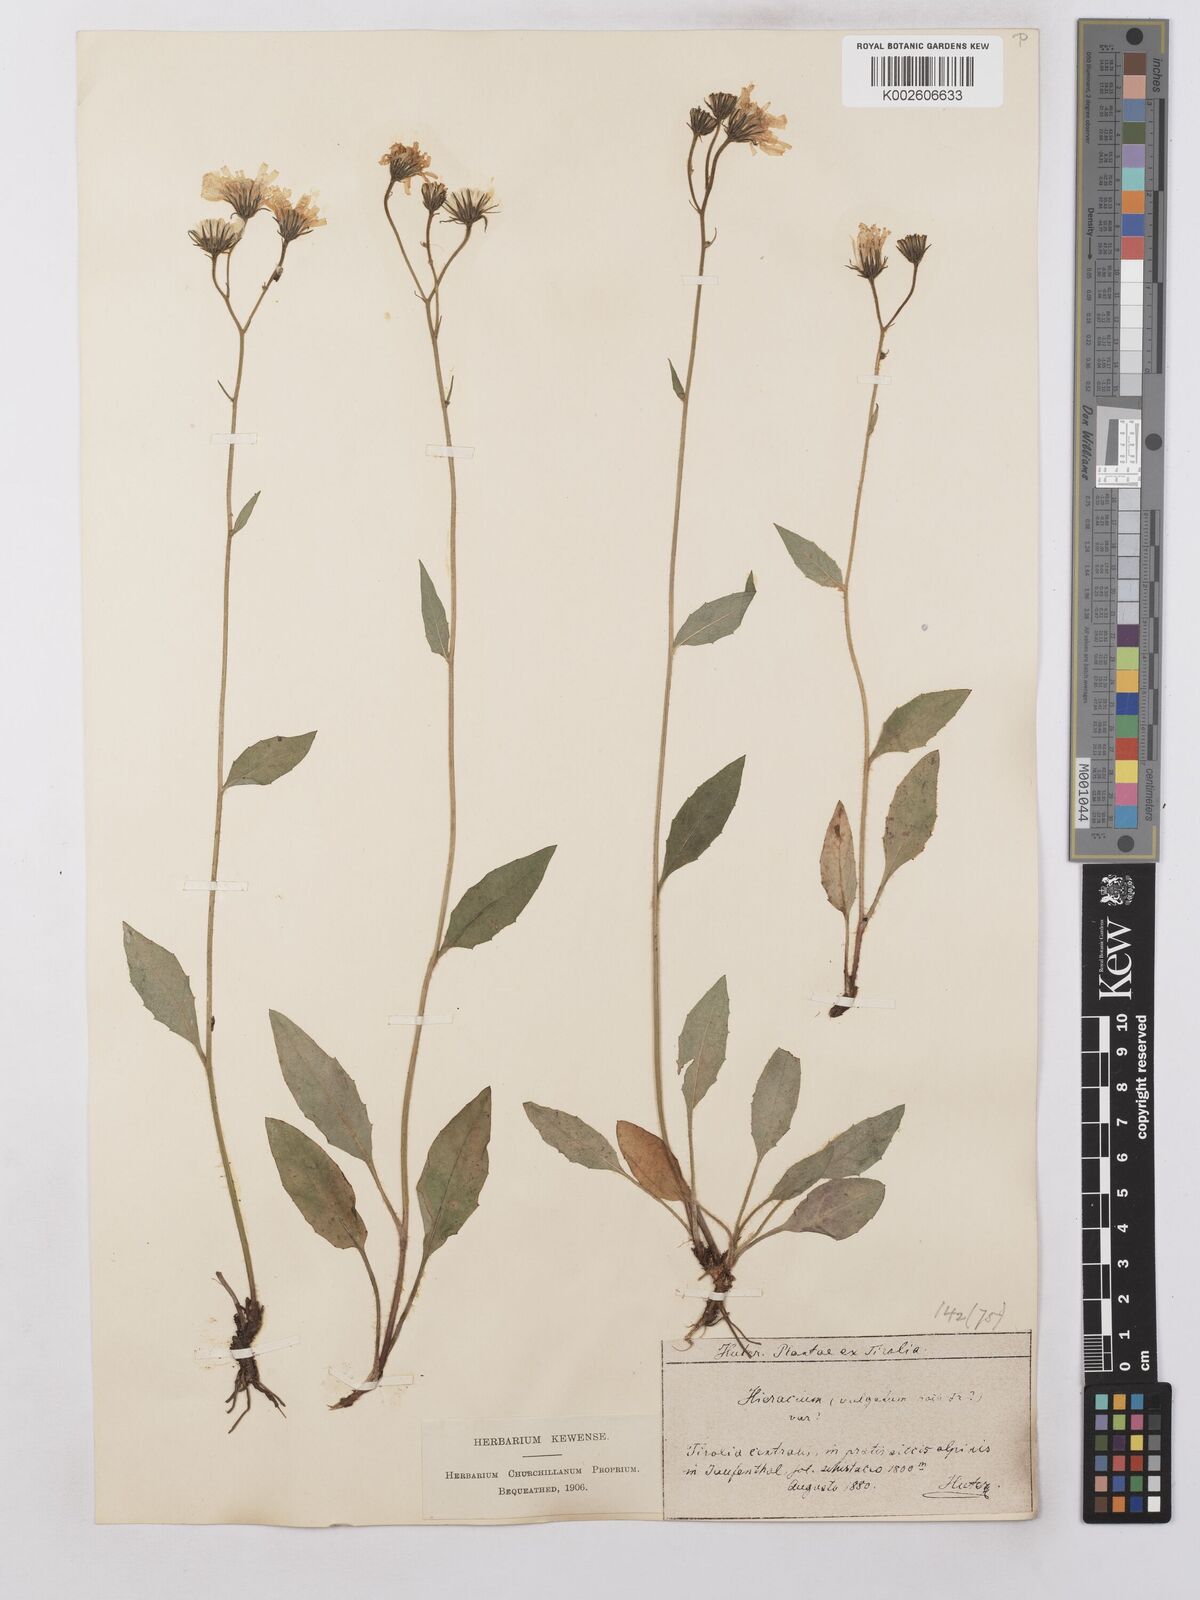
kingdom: Plantae
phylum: Tracheophyta
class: Magnoliopsida
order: Asterales
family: Asteraceae
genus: Hieracium
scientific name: Hieracium lachenalii
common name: Common hawkweed
